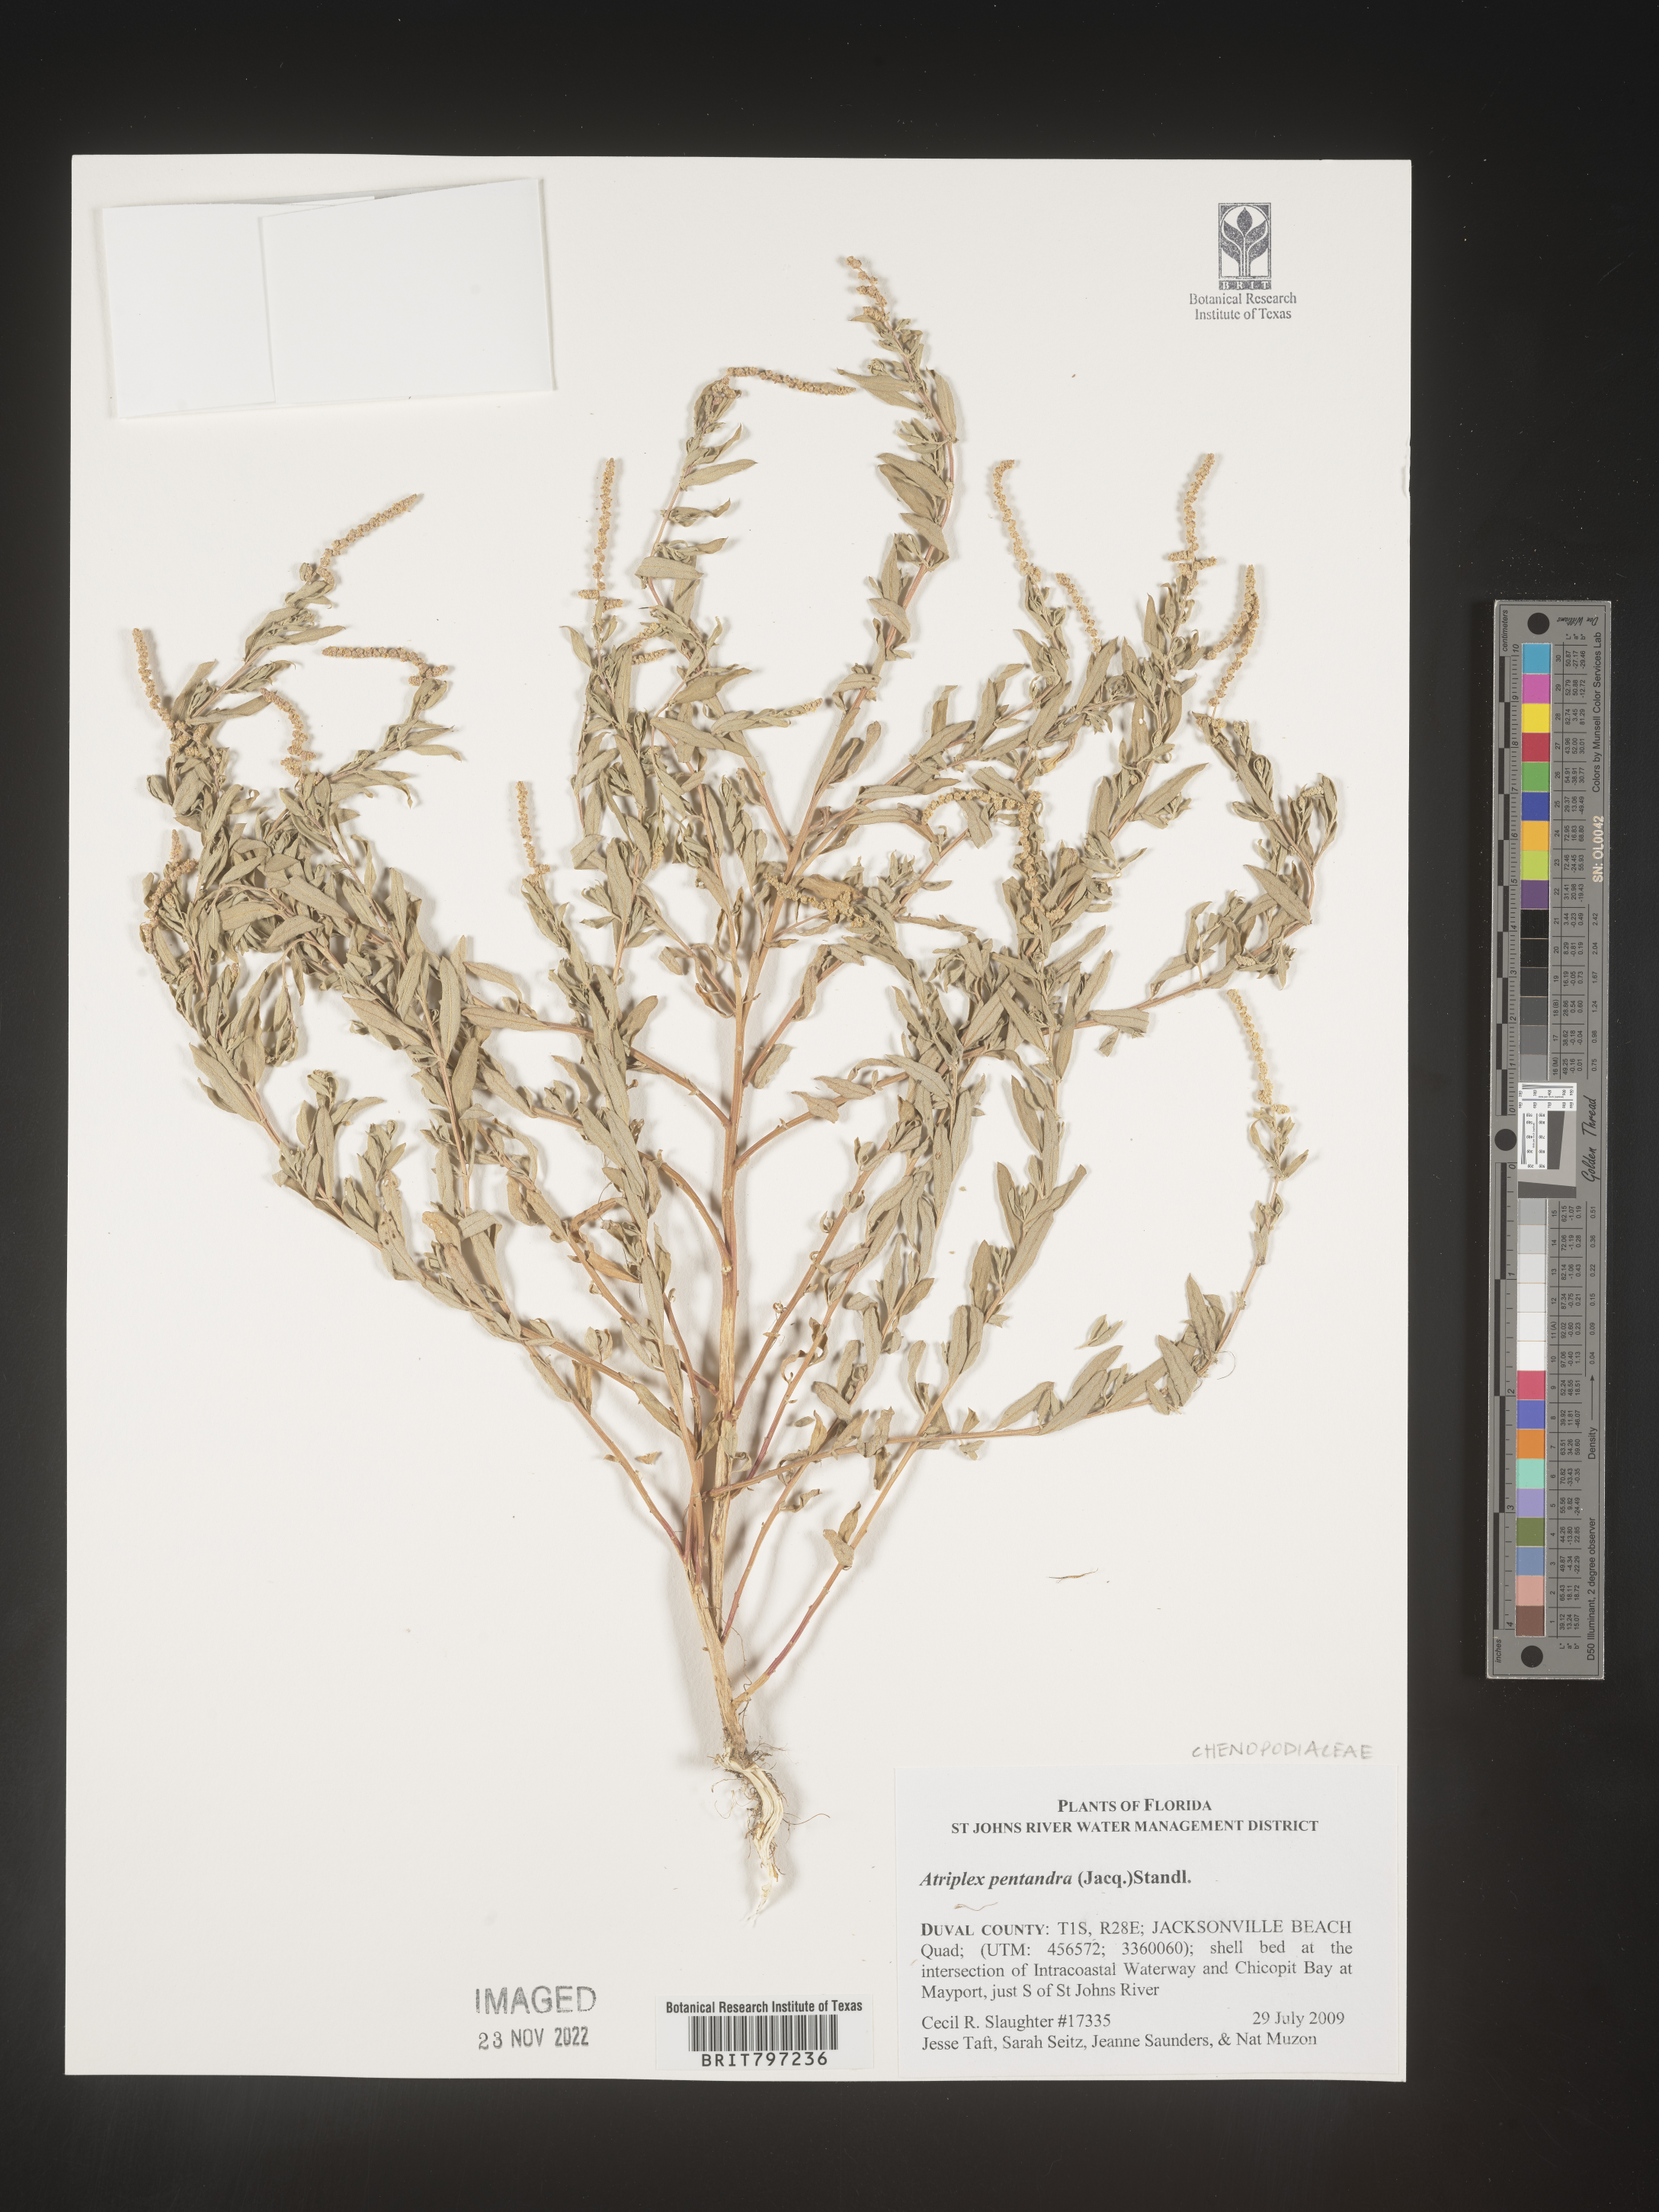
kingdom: Plantae
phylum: Tracheophyta
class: Magnoliopsida
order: Caryophyllales
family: Amaranthaceae
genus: Atriplex
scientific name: Atriplex
